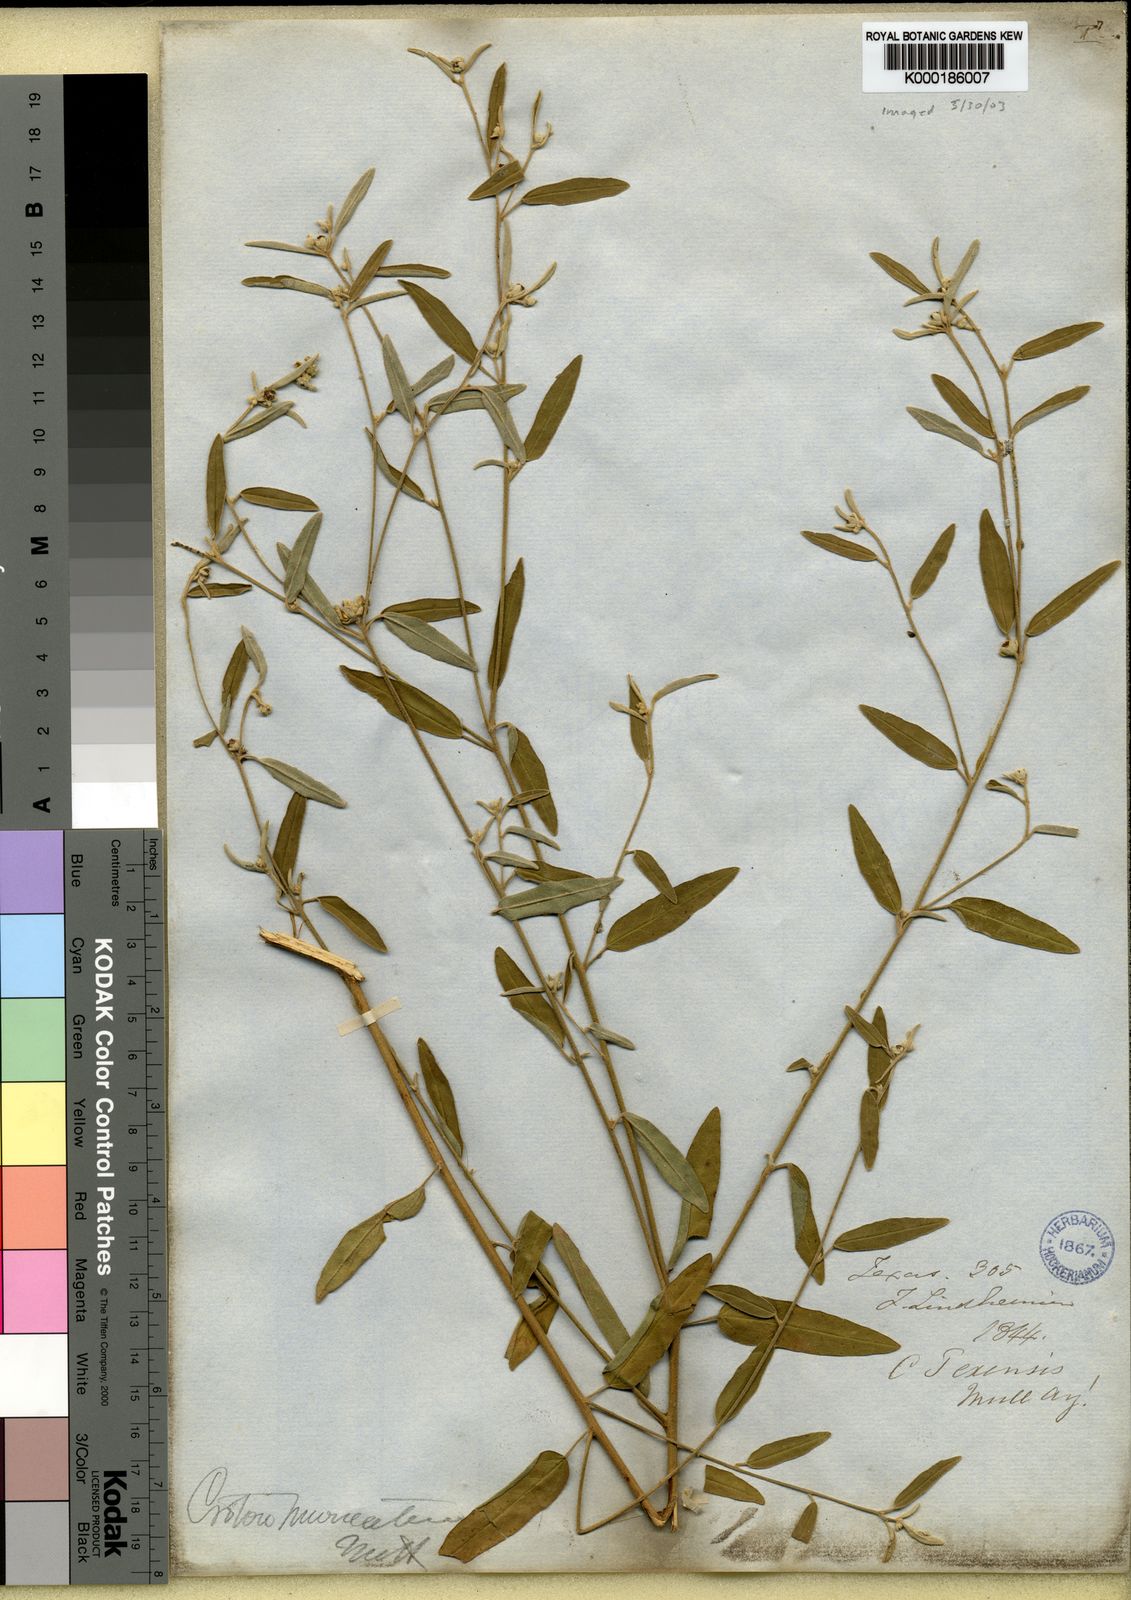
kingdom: Plantae
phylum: Tracheophyta
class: Magnoliopsida
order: Malpighiales
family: Euphorbiaceae
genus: Croton
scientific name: Croton
